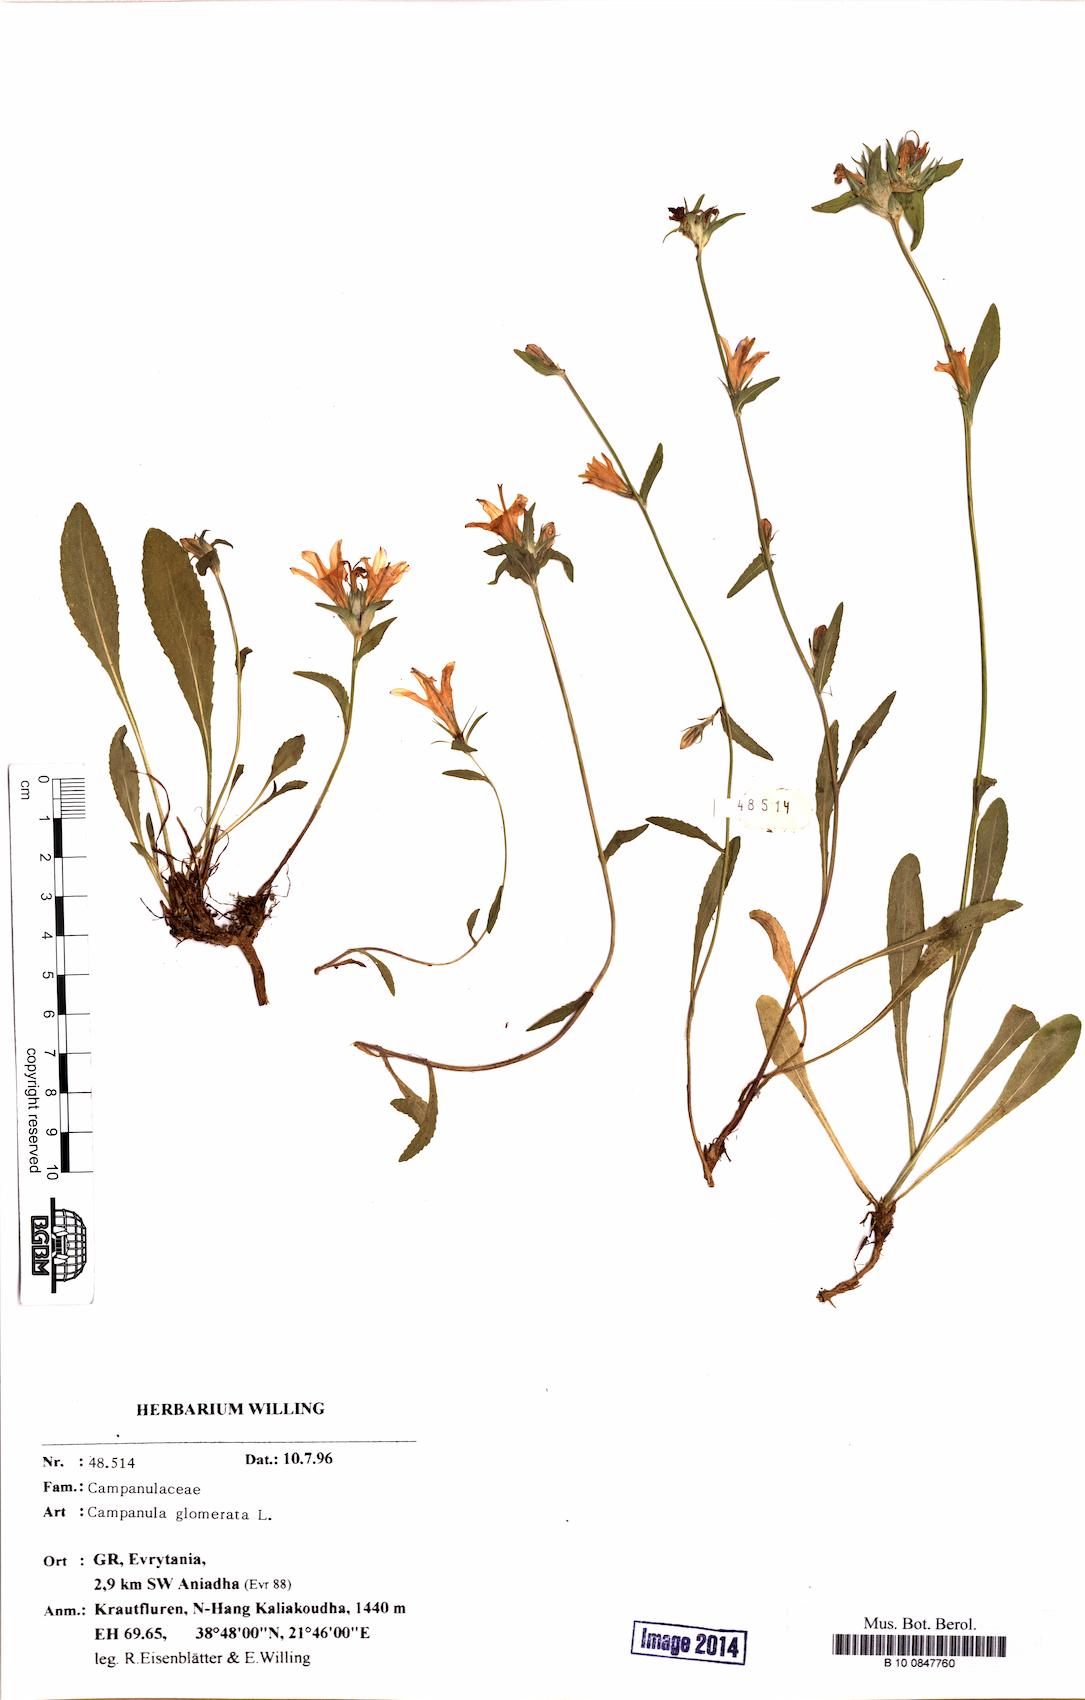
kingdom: Plantae
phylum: Tracheophyta
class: Magnoliopsida
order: Asterales
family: Campanulaceae
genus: Campanula
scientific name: Campanula glomerata
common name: Clustered bellflower
